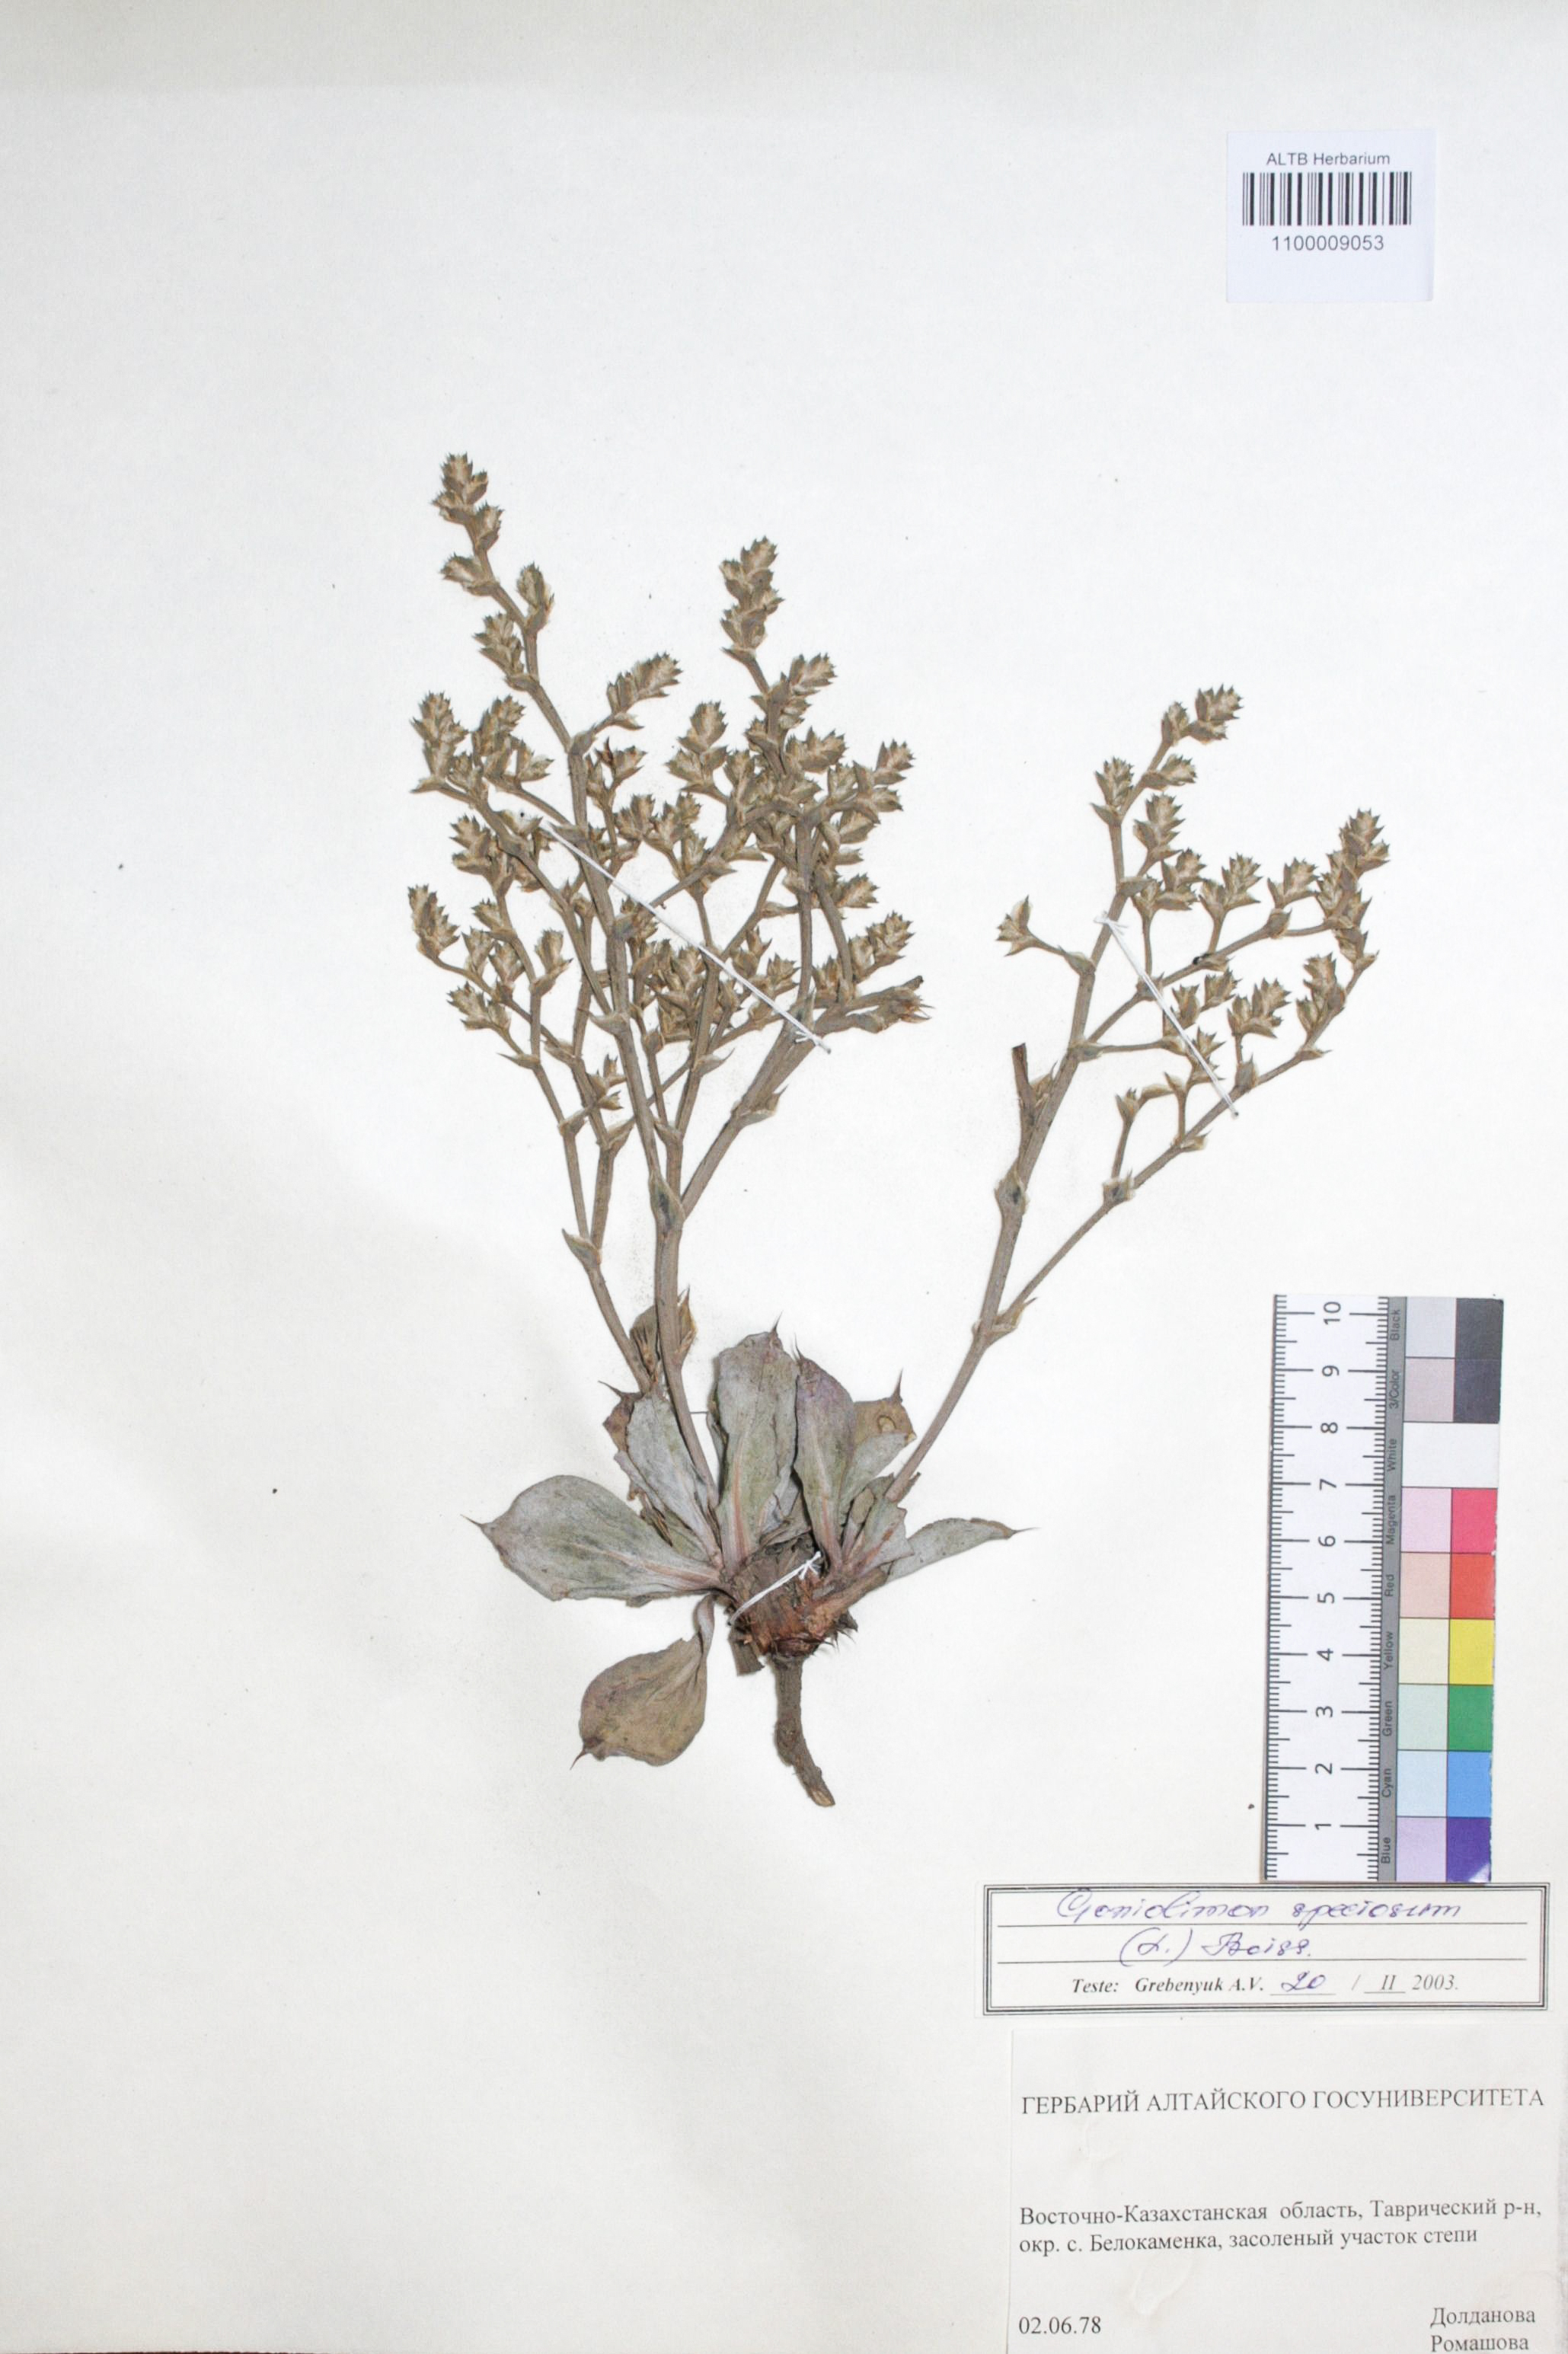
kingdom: Plantae
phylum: Tracheophyta
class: Magnoliopsida
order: Caryophyllales
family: Plumbaginaceae
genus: Goniolimon
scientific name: Goniolimon speciosum
